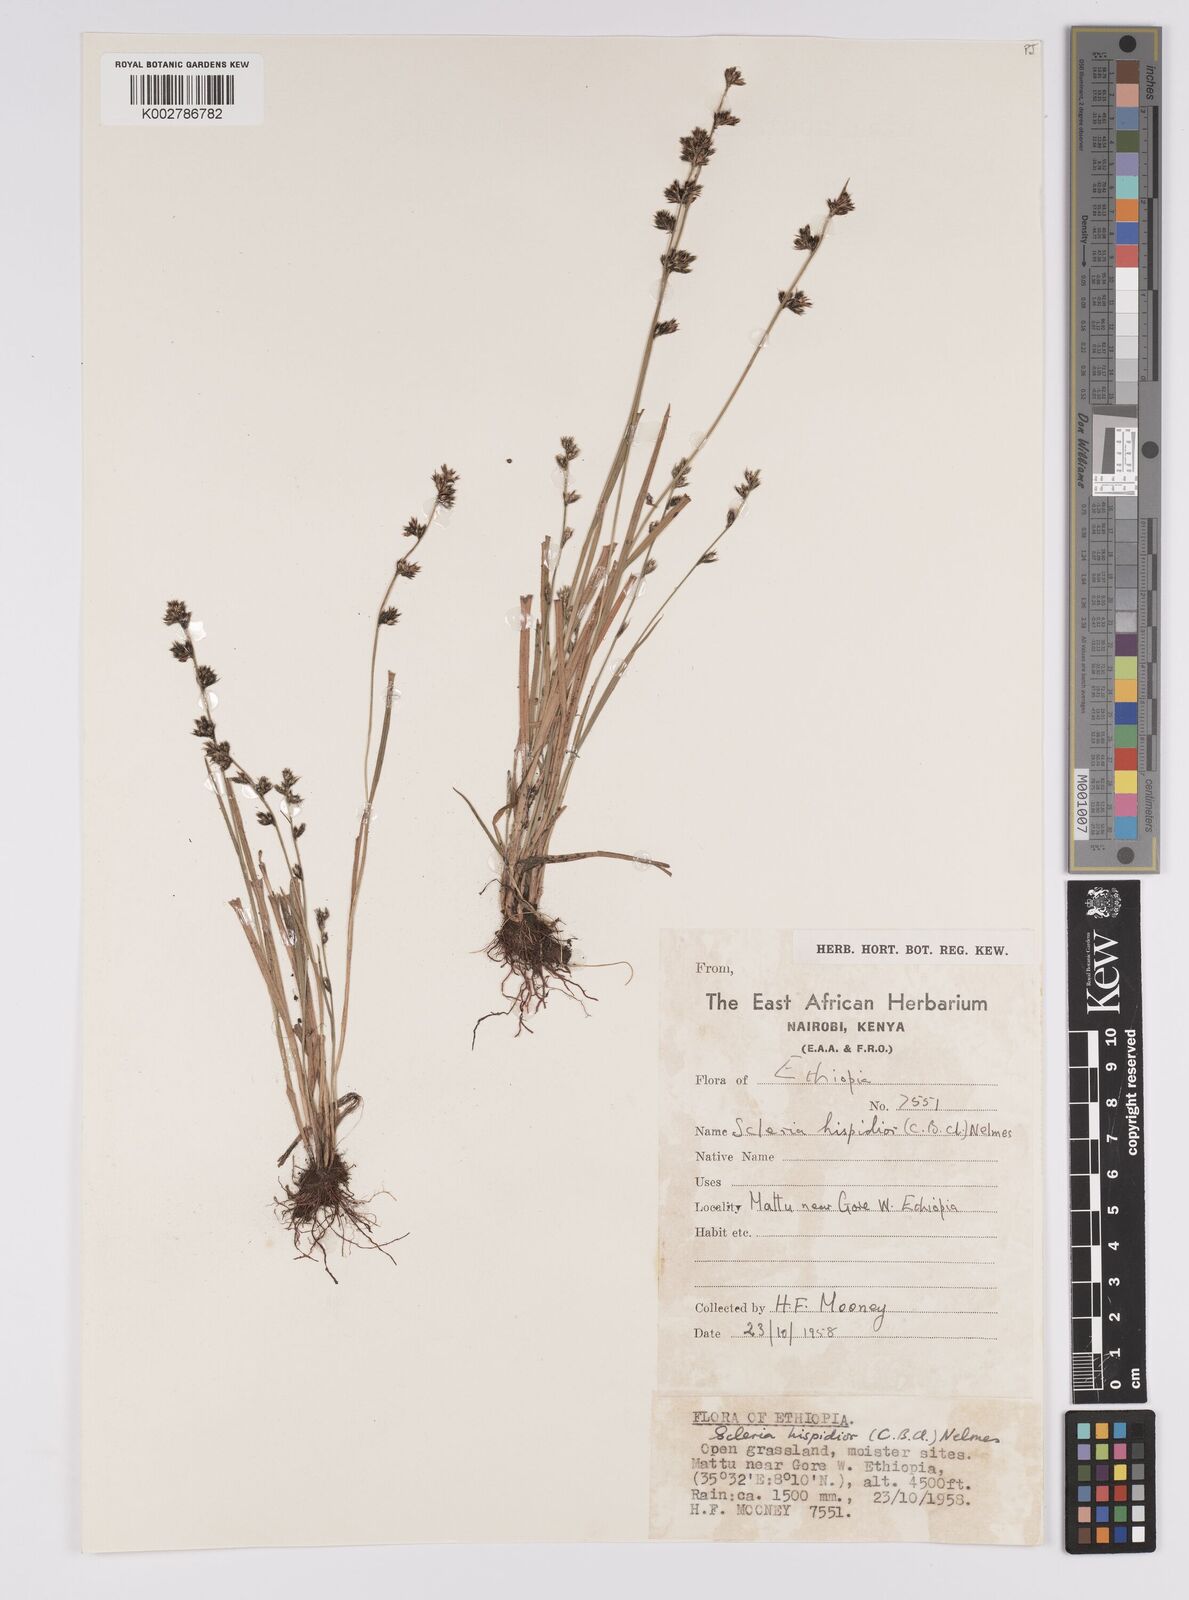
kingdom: Plantae
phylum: Tracheophyta
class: Liliopsida
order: Poales
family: Cyperaceae
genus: Scleria
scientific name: Scleria hispidula
